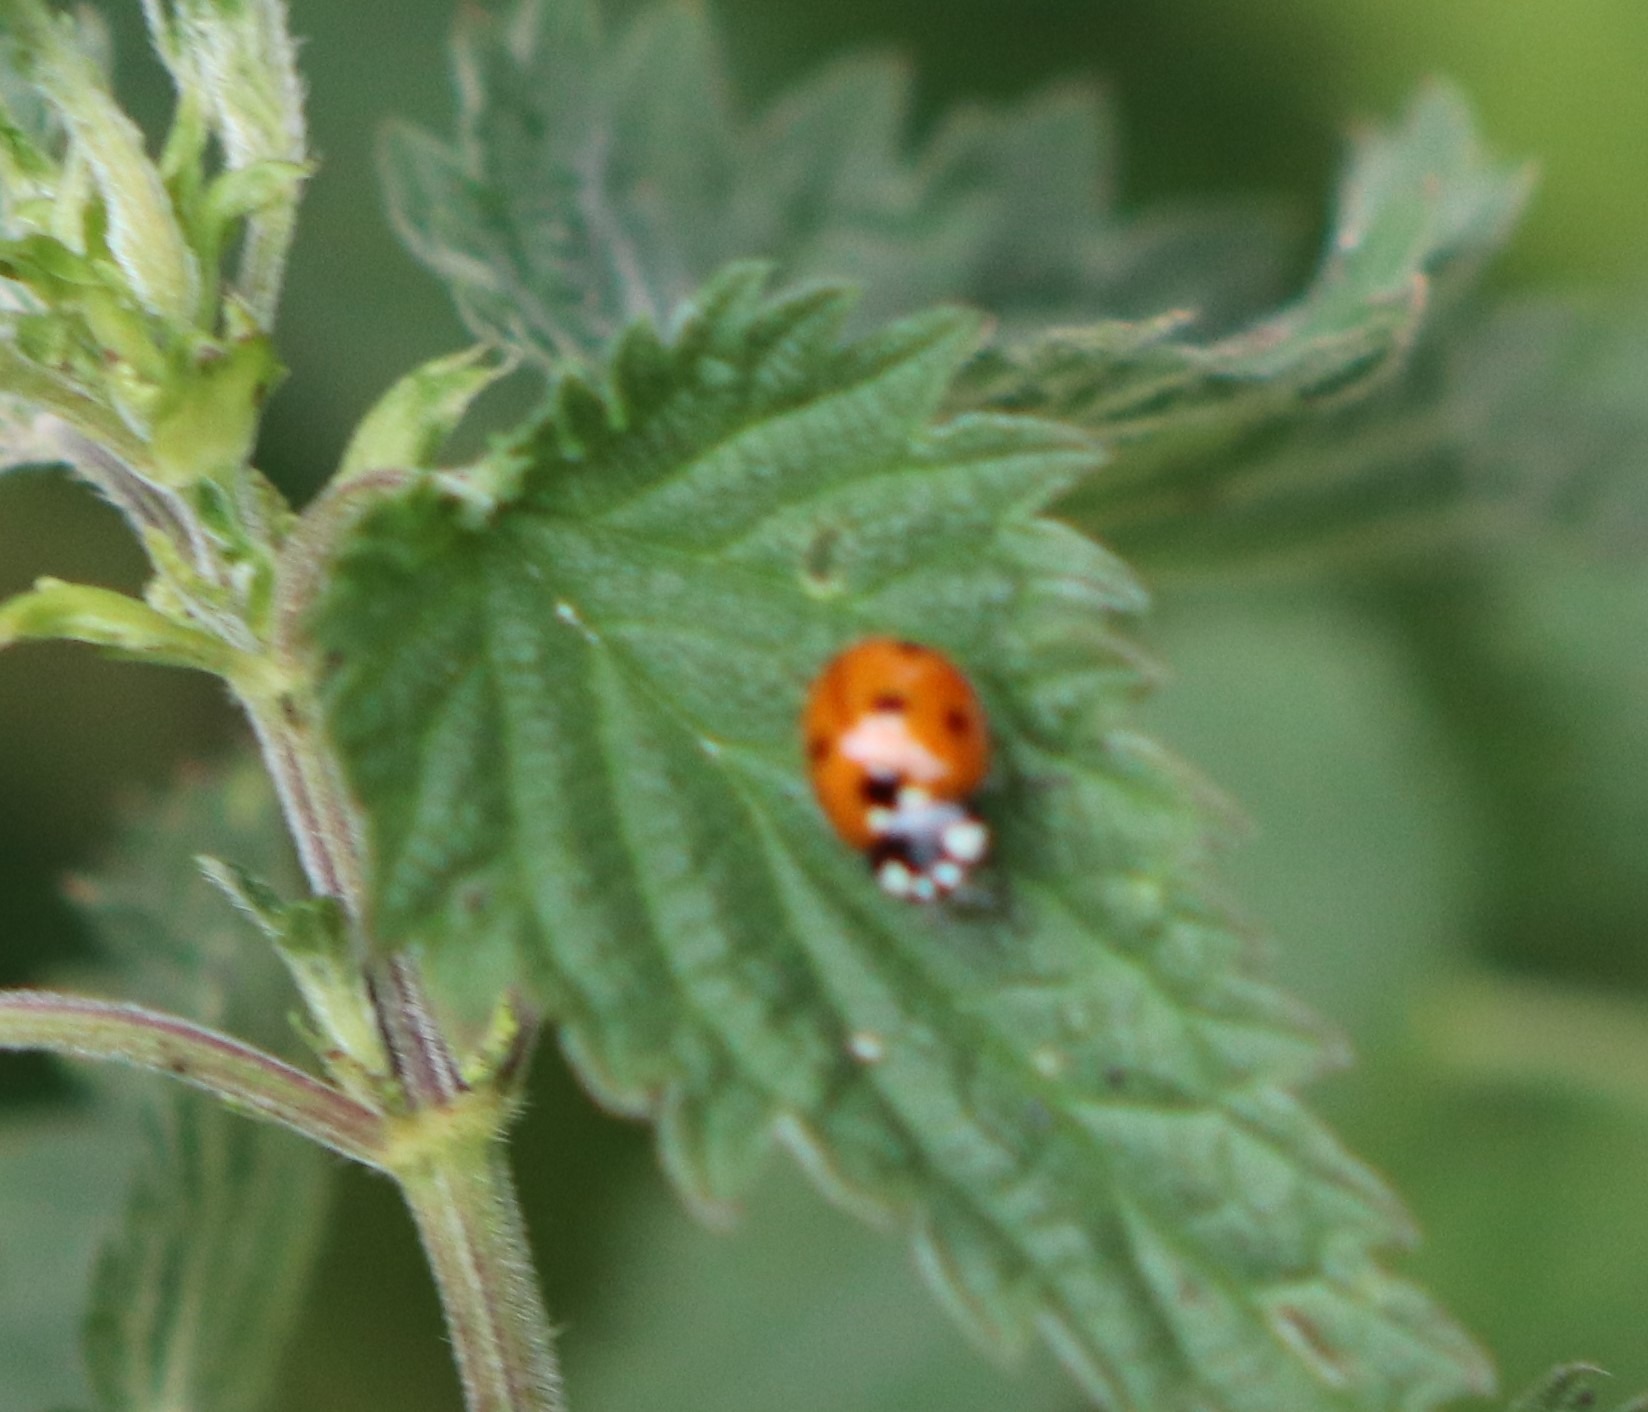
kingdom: Animalia
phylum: Arthropoda
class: Insecta
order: Coleoptera
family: Coccinellidae
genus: Coccinella
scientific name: Coccinella septempunctata
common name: Syvplettet mariehøne
